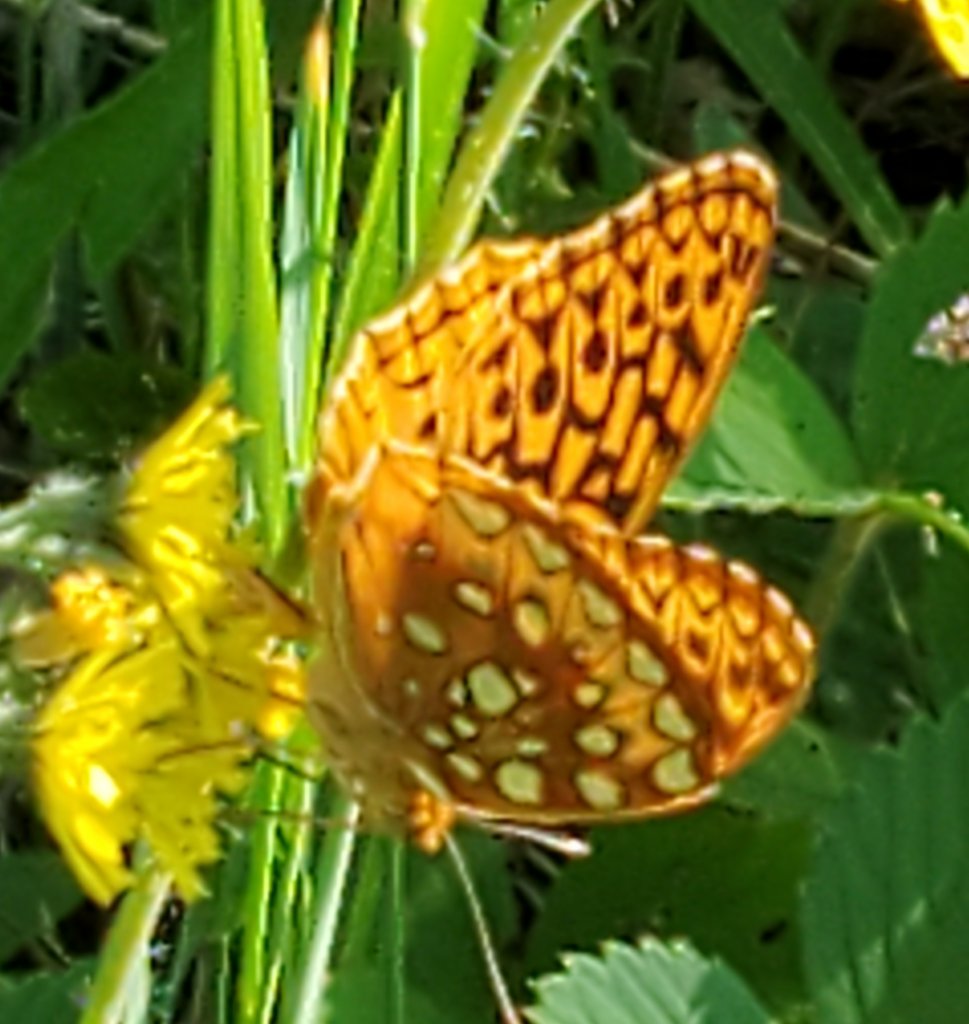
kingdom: Animalia
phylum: Arthropoda
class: Insecta
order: Lepidoptera
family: Nymphalidae
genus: Speyeria
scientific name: Speyeria cybele
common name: Great Spangled Fritillary
